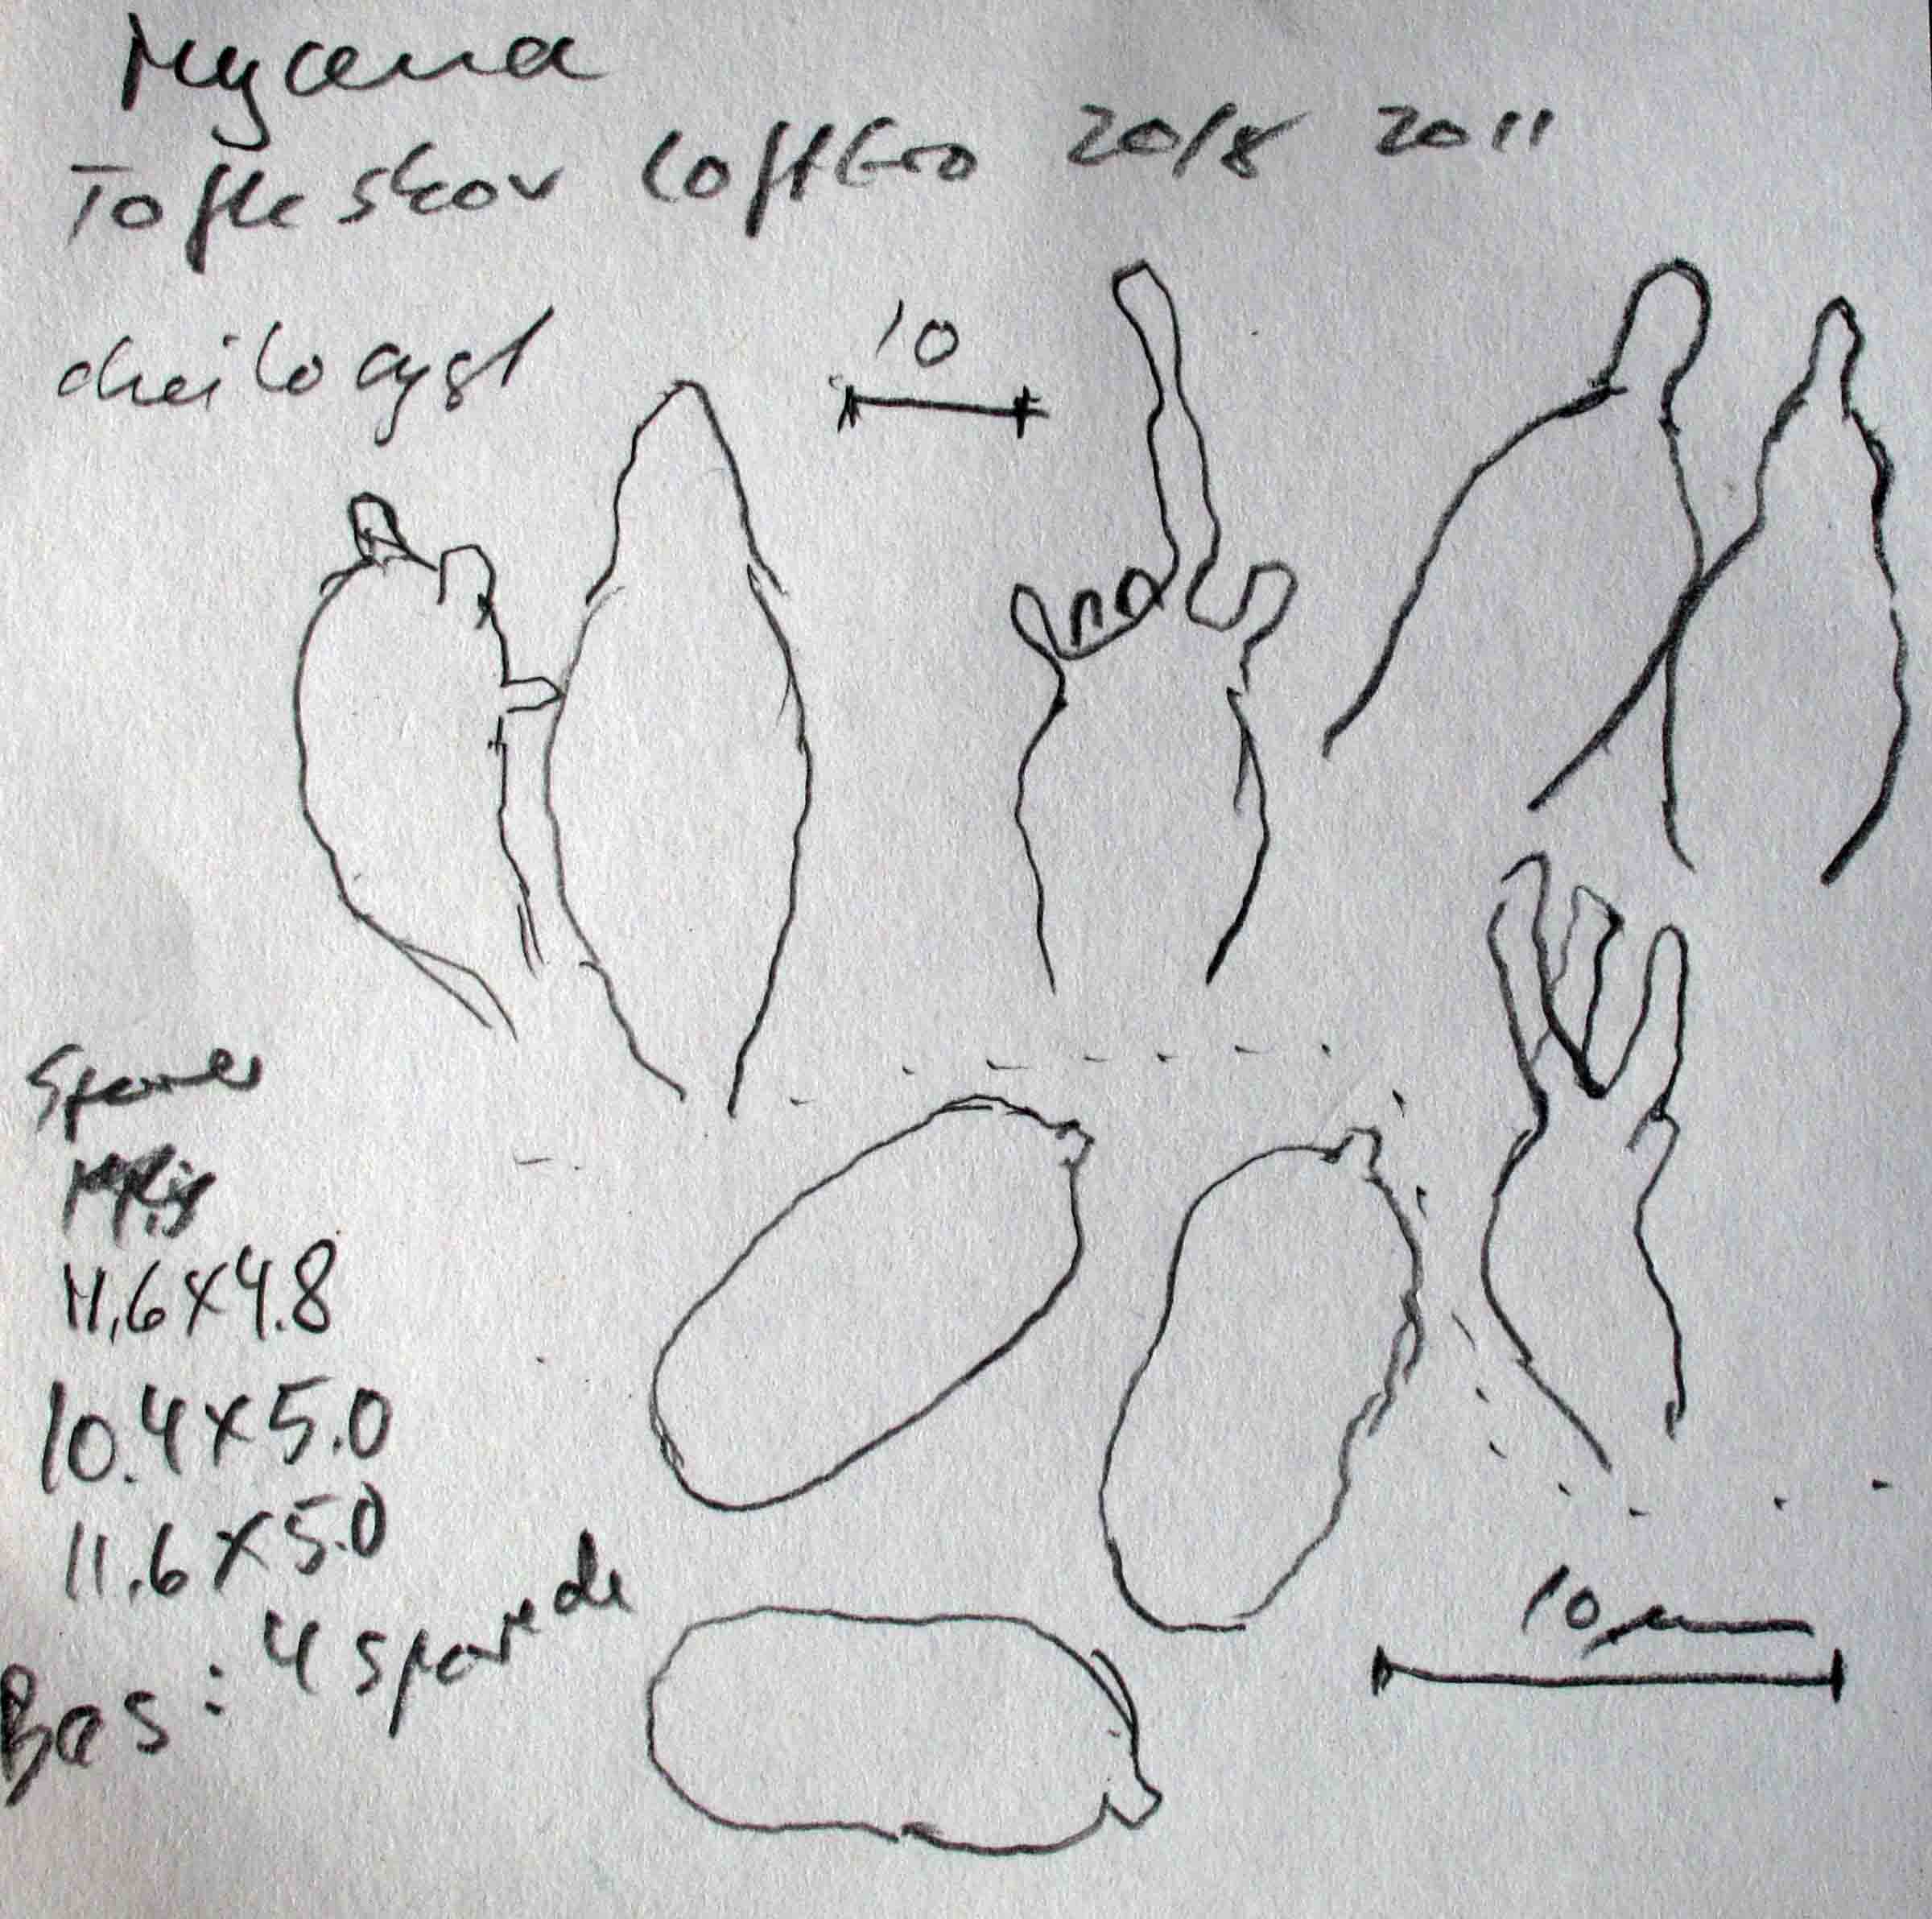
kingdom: Fungi
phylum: Basidiomycota
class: Agaricomycetes
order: Agaricales
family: Mycenaceae
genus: Mycena
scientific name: Mycena abramsii
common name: sommer-huesvamp
